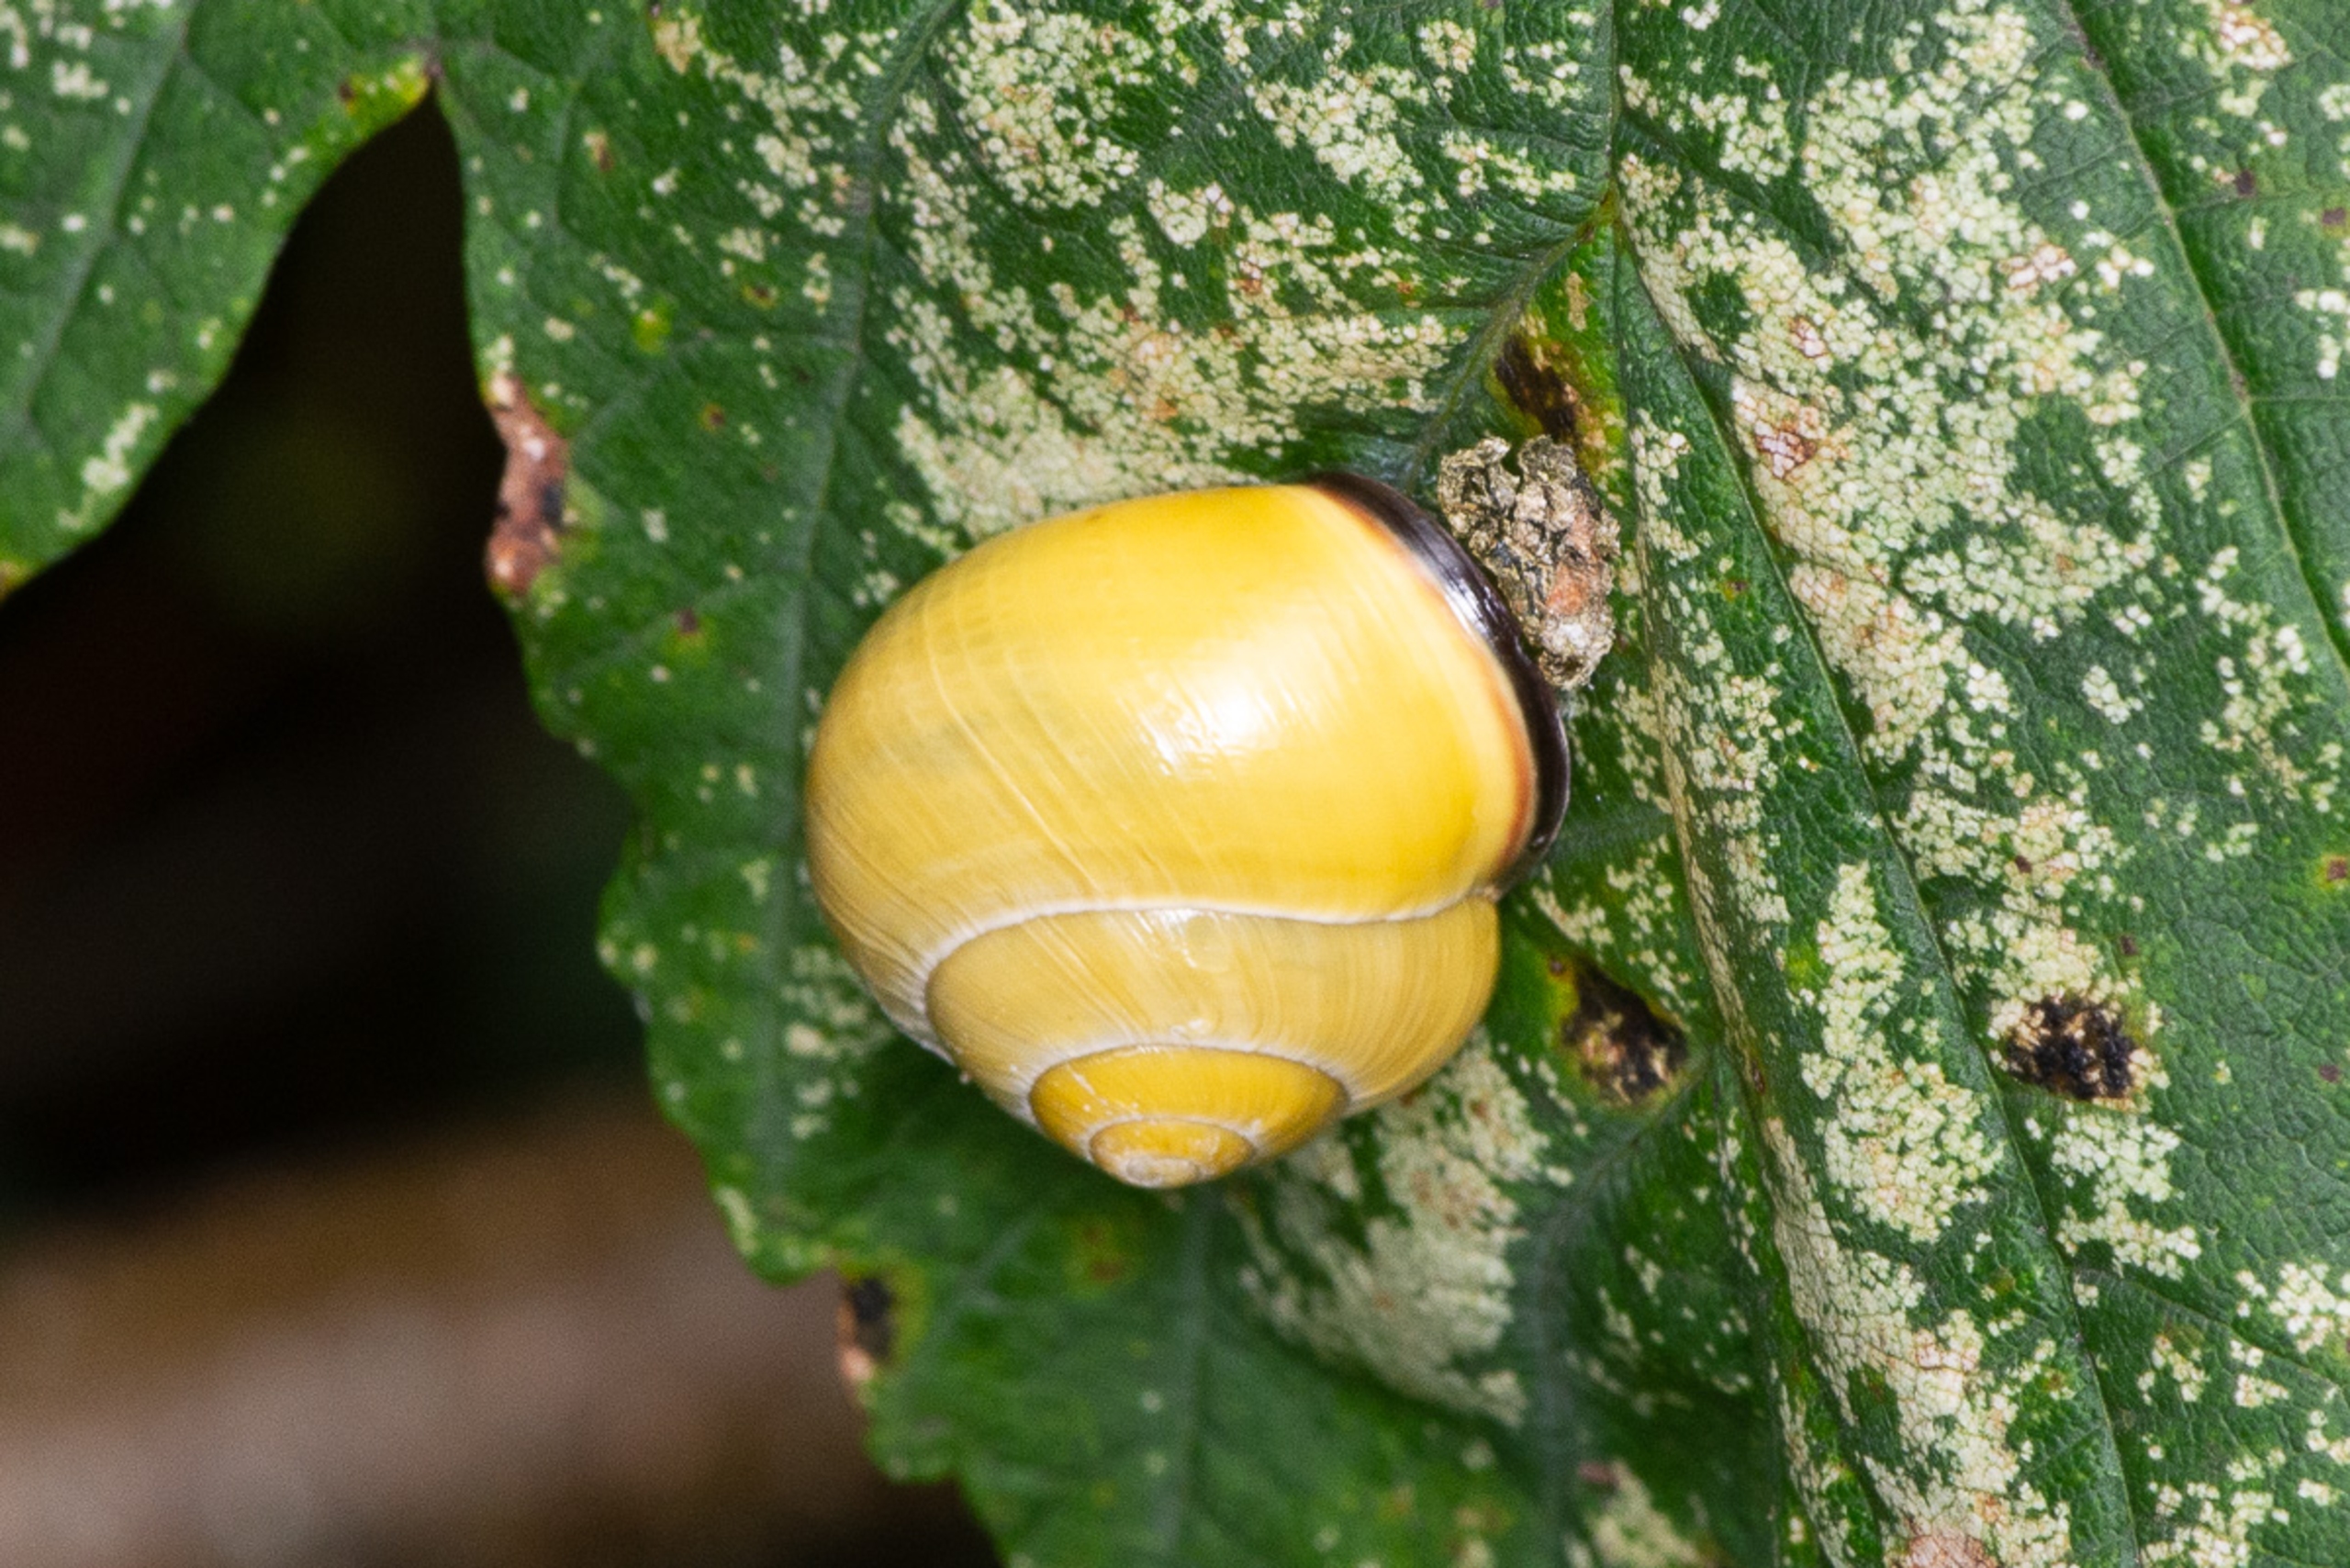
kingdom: Animalia
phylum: Mollusca
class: Gastropoda
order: Stylommatophora
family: Helicidae
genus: Cepaea
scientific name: Cepaea nemoralis
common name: Lundsnegl
